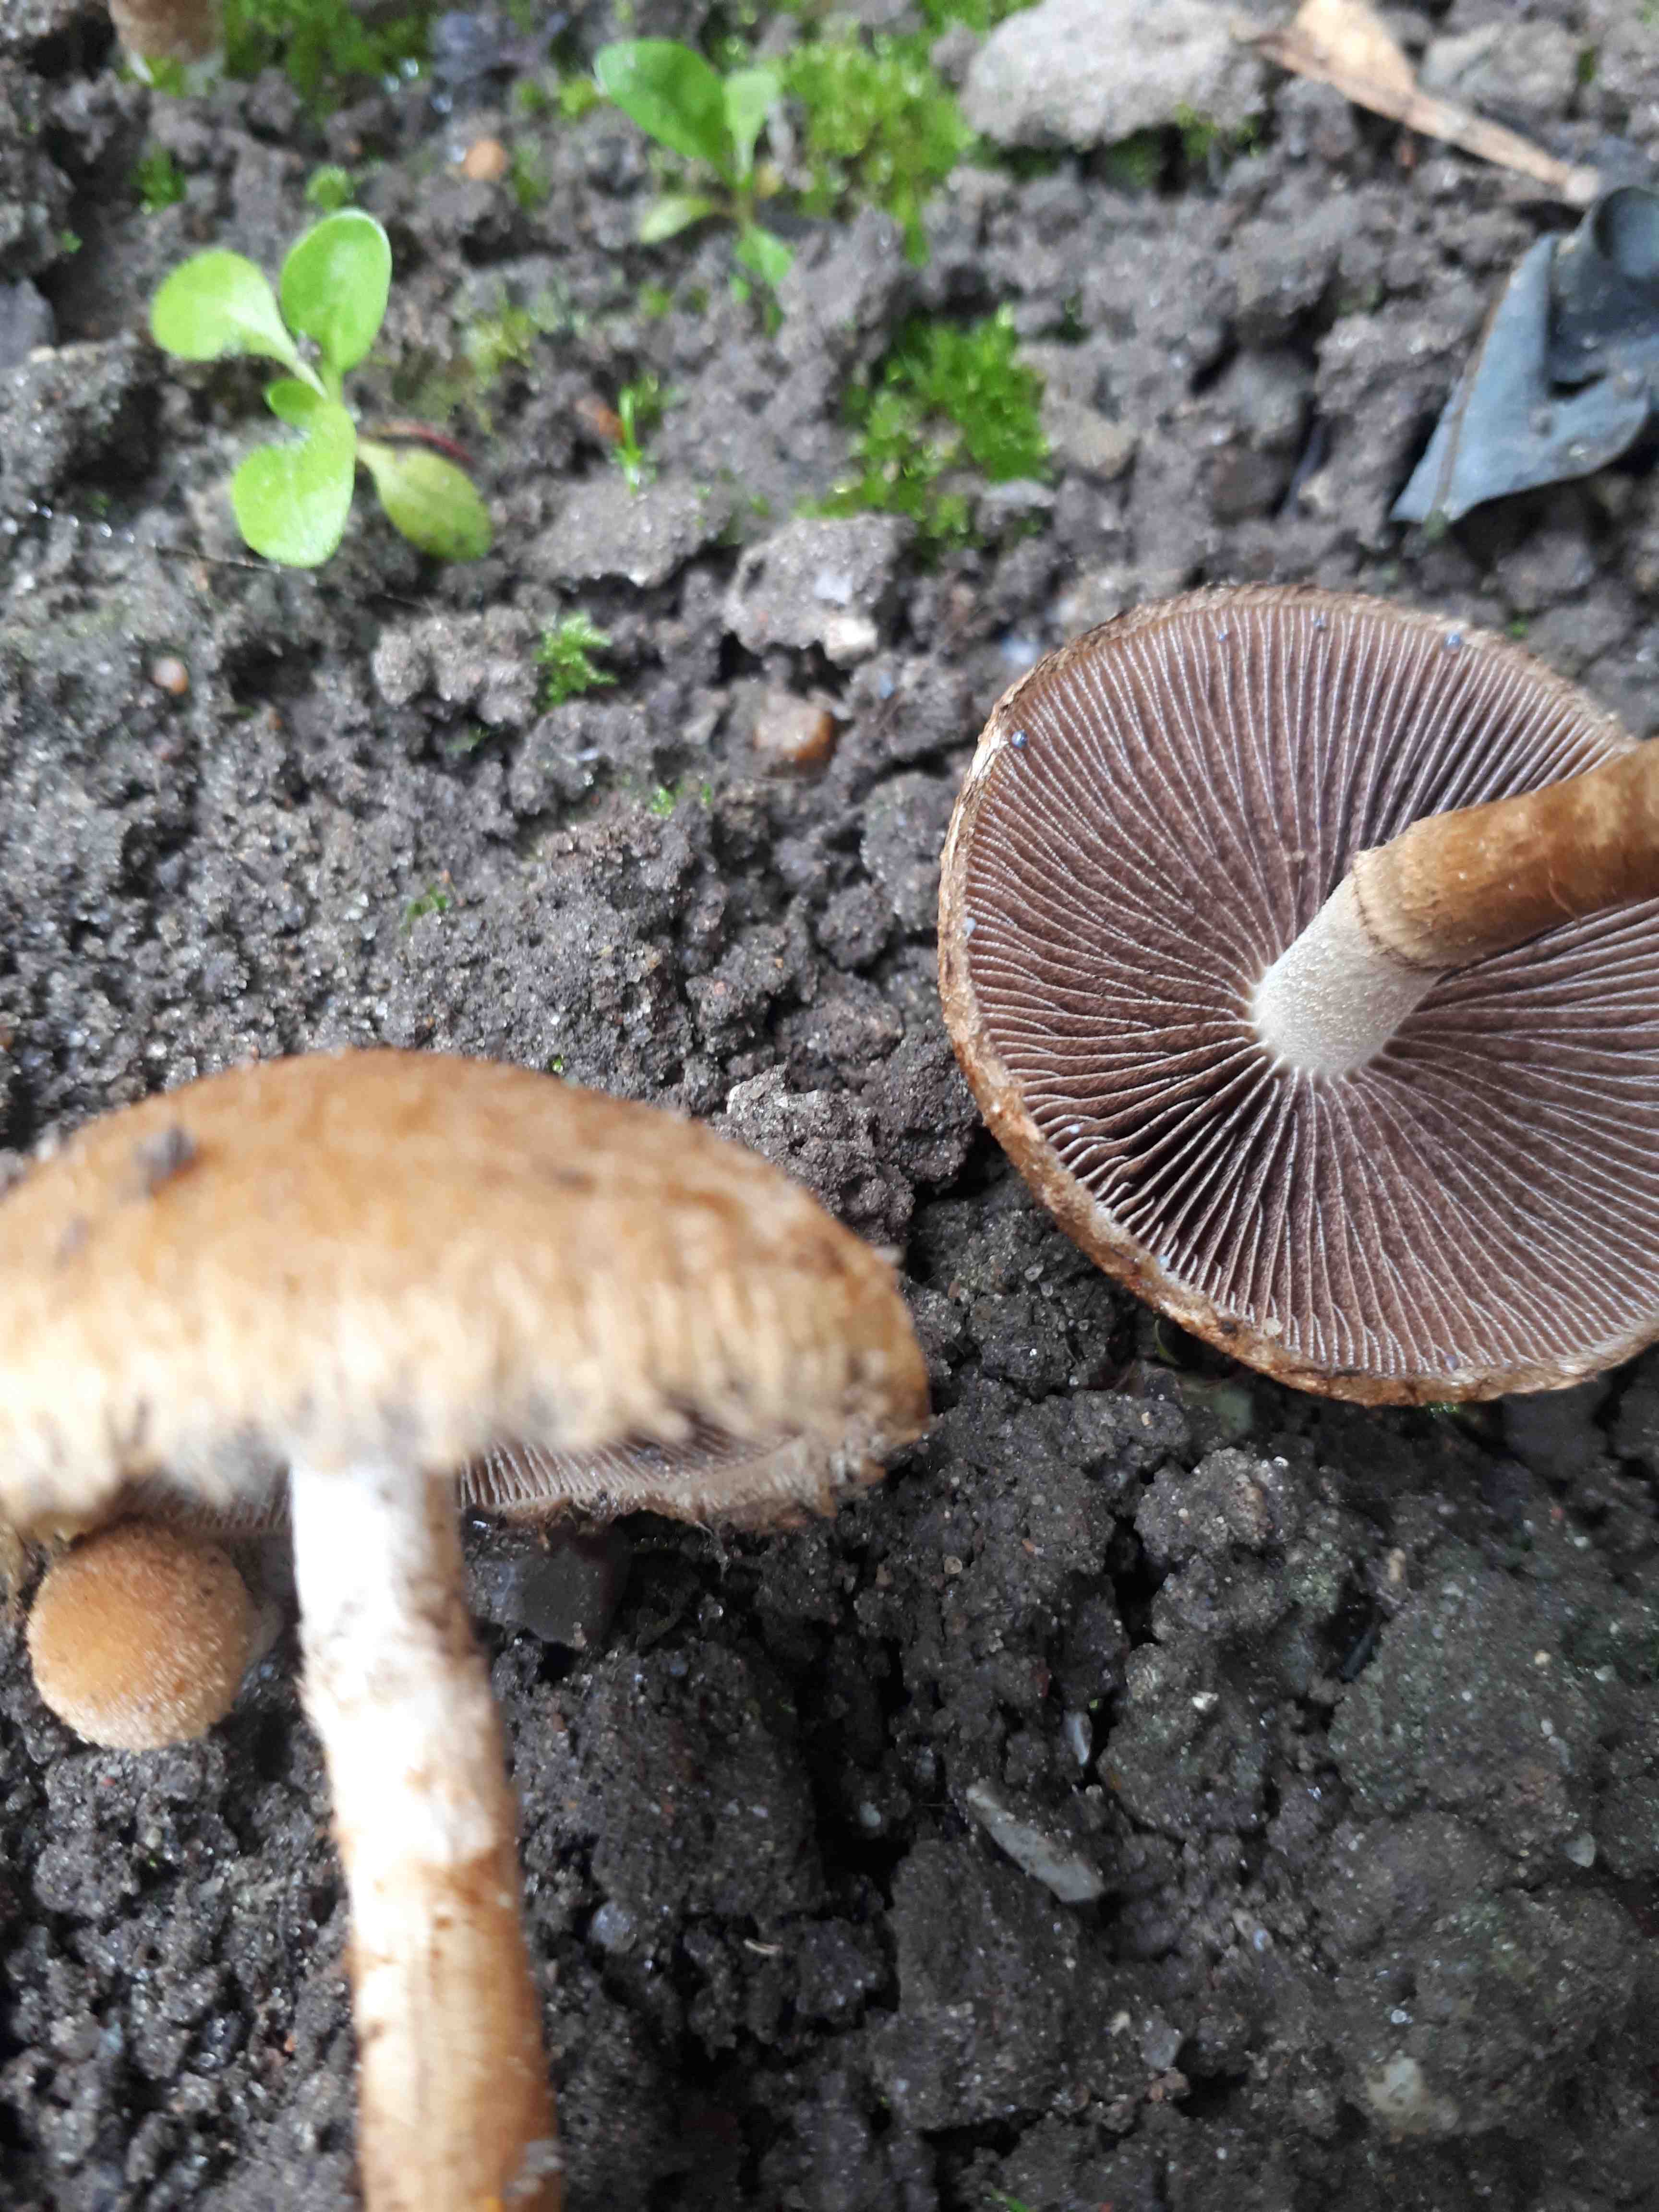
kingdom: Fungi
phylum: Basidiomycota
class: Agaricomycetes
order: Agaricales
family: Psathyrellaceae
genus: Lacrymaria
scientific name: Lacrymaria lacrymabunda
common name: grædende mørkhat
